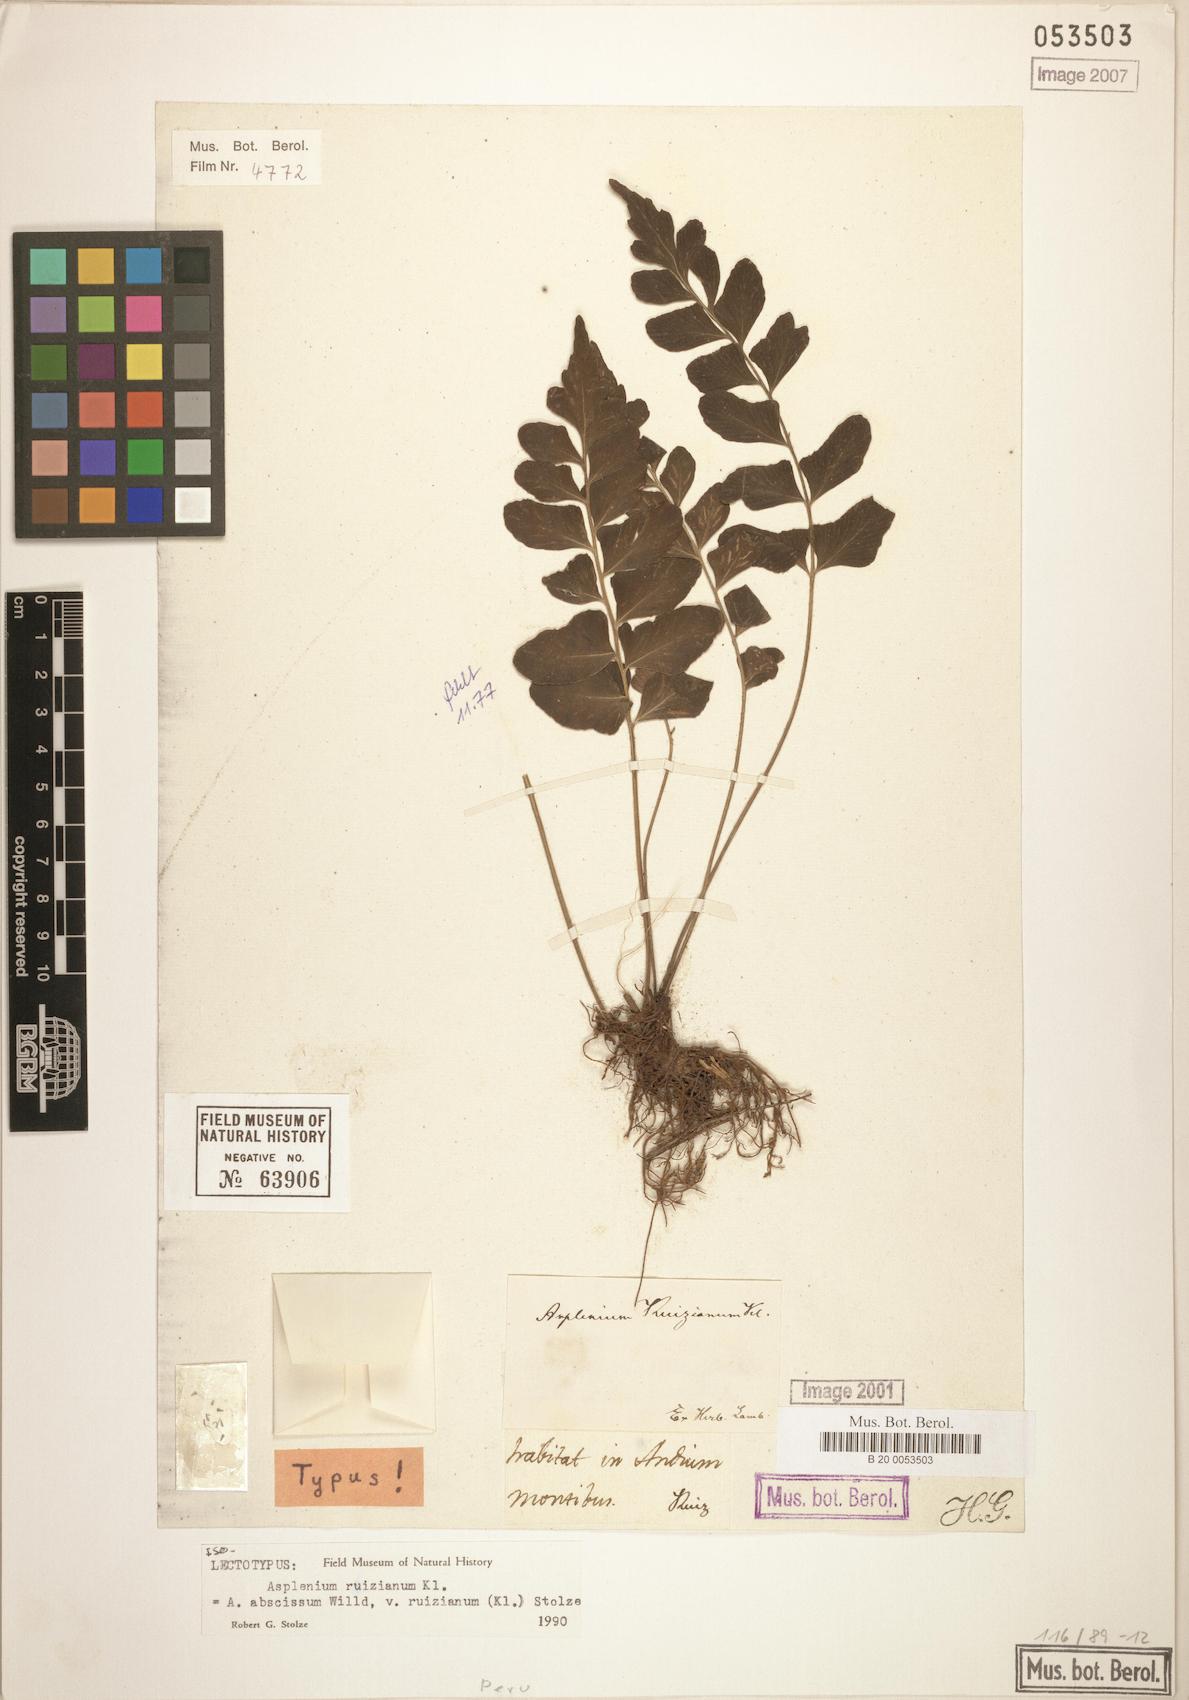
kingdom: Plantae
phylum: Tracheophyta
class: Polypodiopsida
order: Polypodiales
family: Aspleniaceae
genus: Asplenium
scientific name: Asplenium ruizianum
